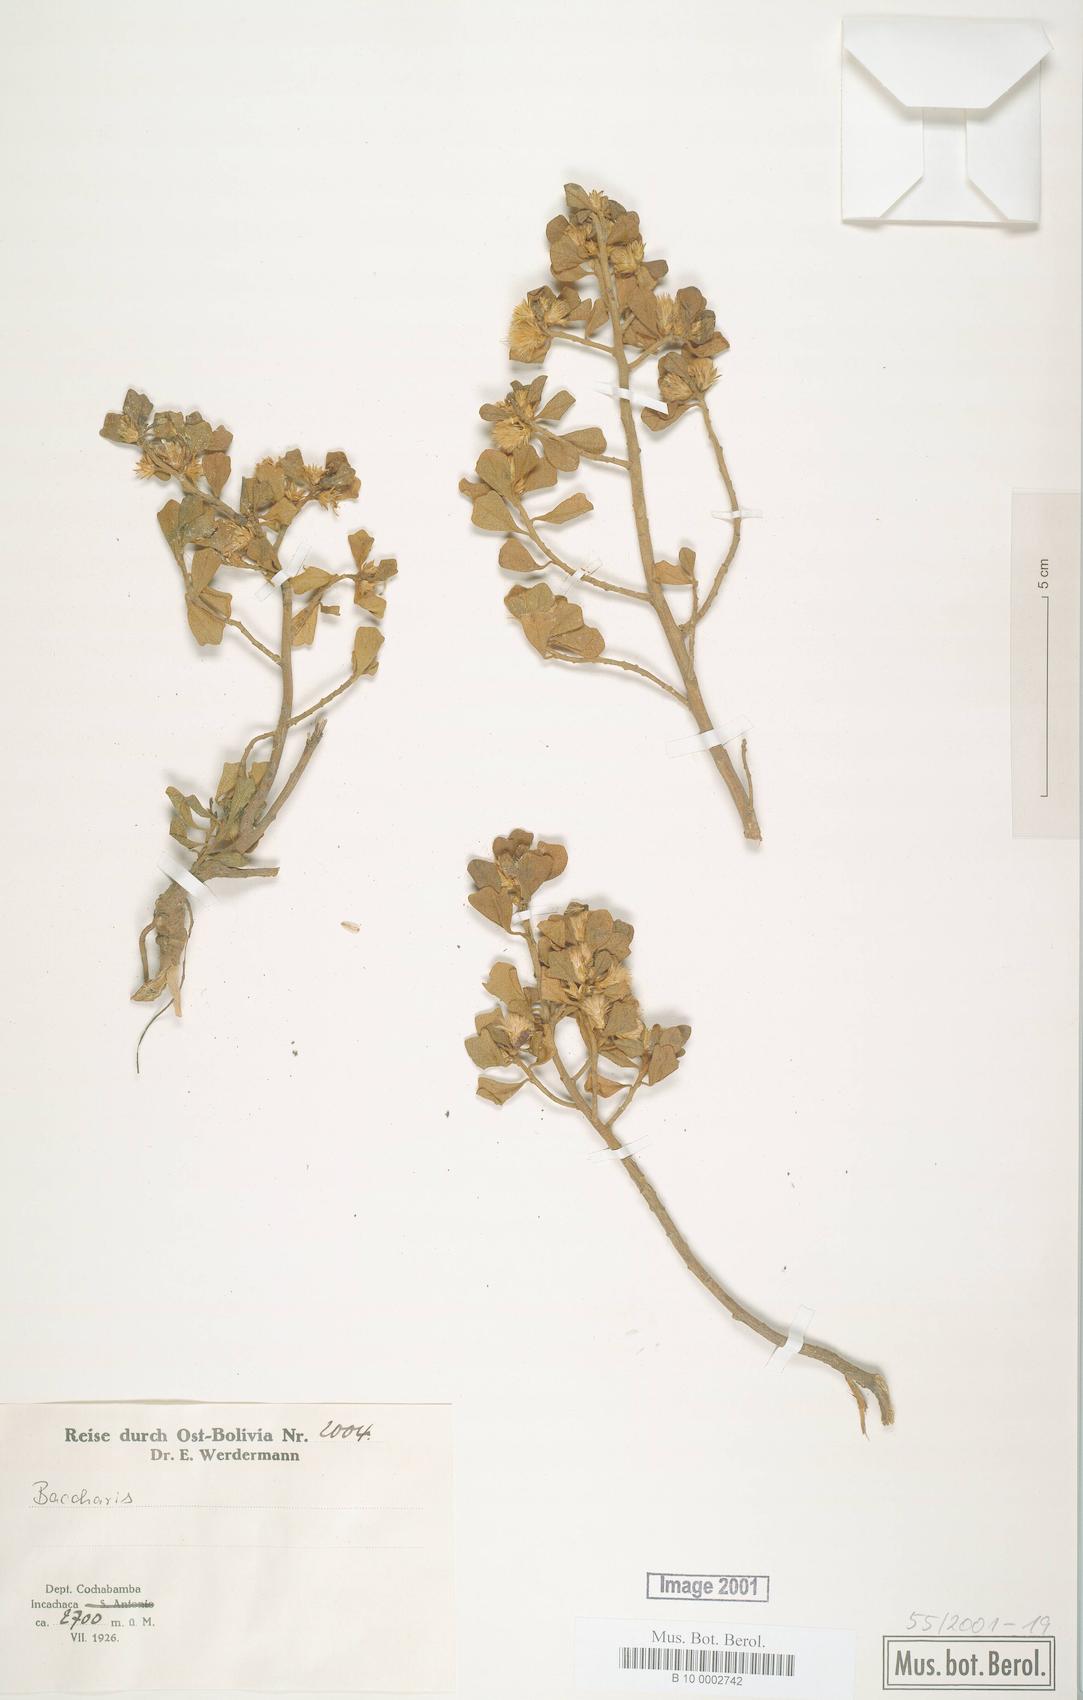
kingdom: Plantae
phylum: Tracheophyta
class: Magnoliopsida
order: Asterales
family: Asteraceae
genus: Baccharis
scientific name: Baccharis
